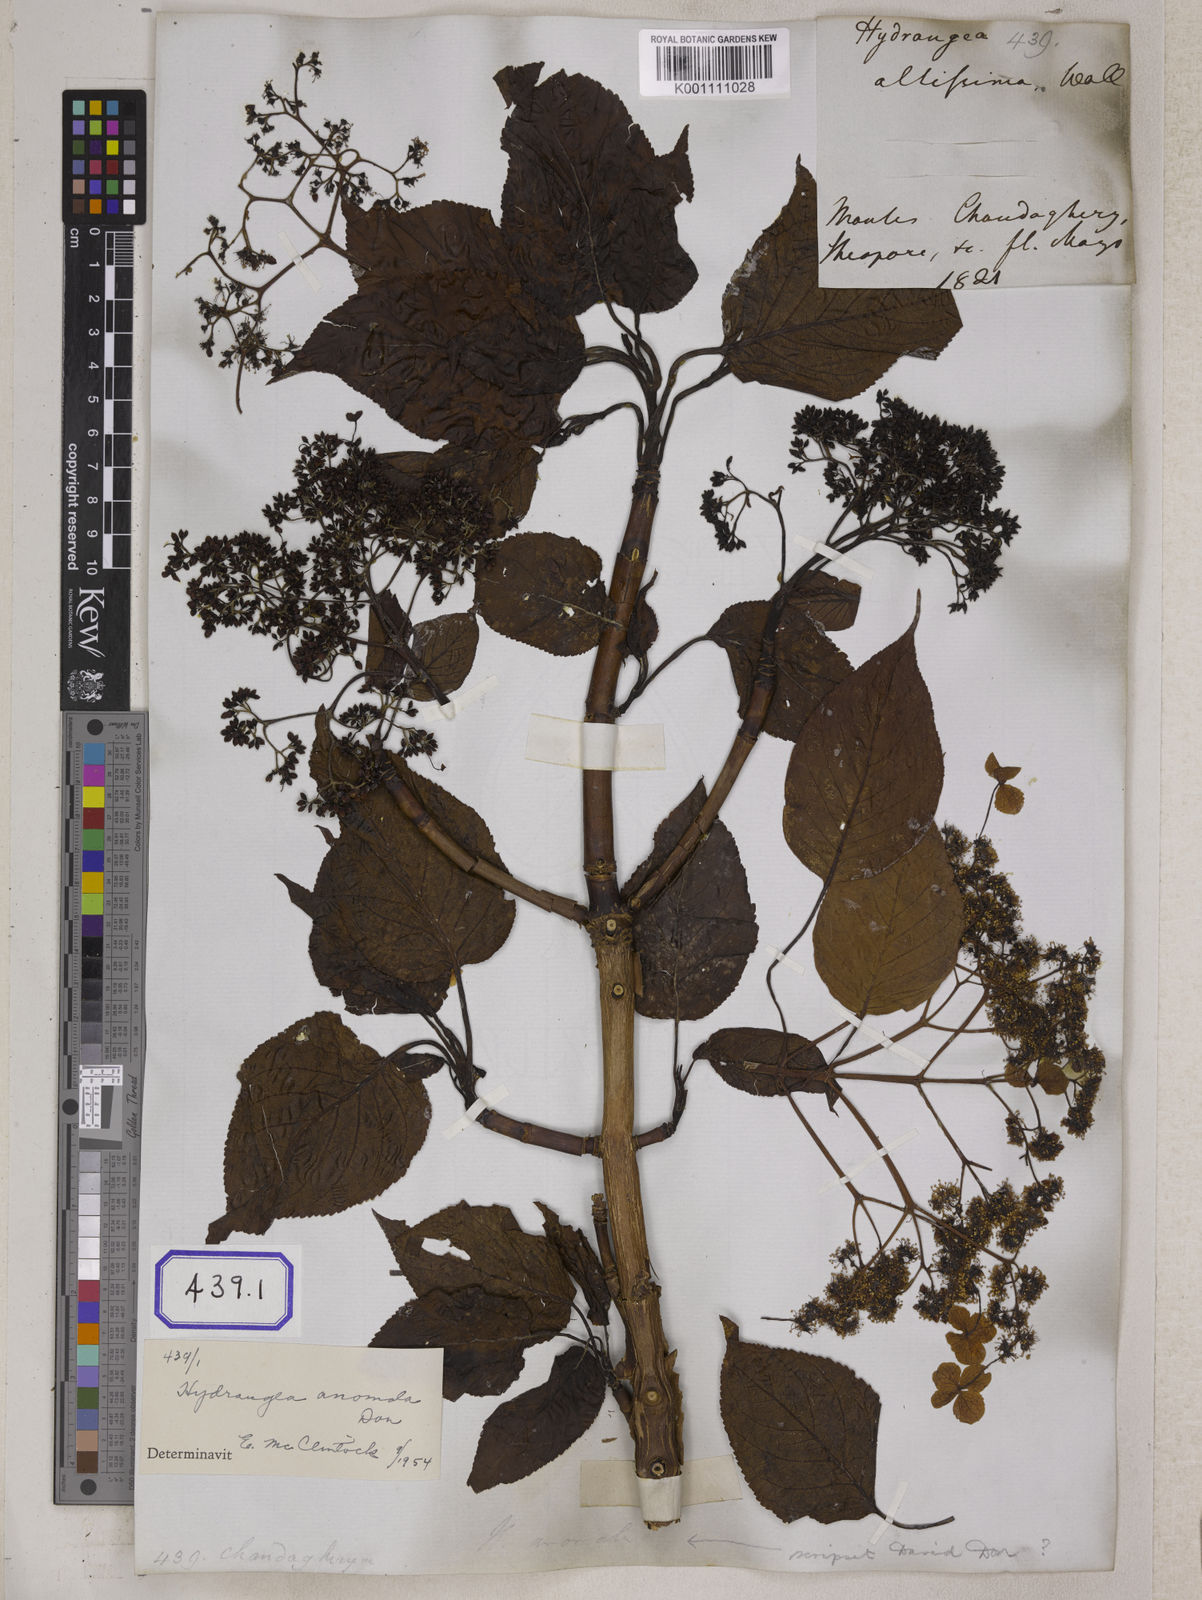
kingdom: Plantae
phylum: Tracheophyta
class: Magnoliopsida
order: Cornales
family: Hydrangeaceae
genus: Hydrangea
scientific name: Hydrangea anomala
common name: Japanese climbing-hydrangea
